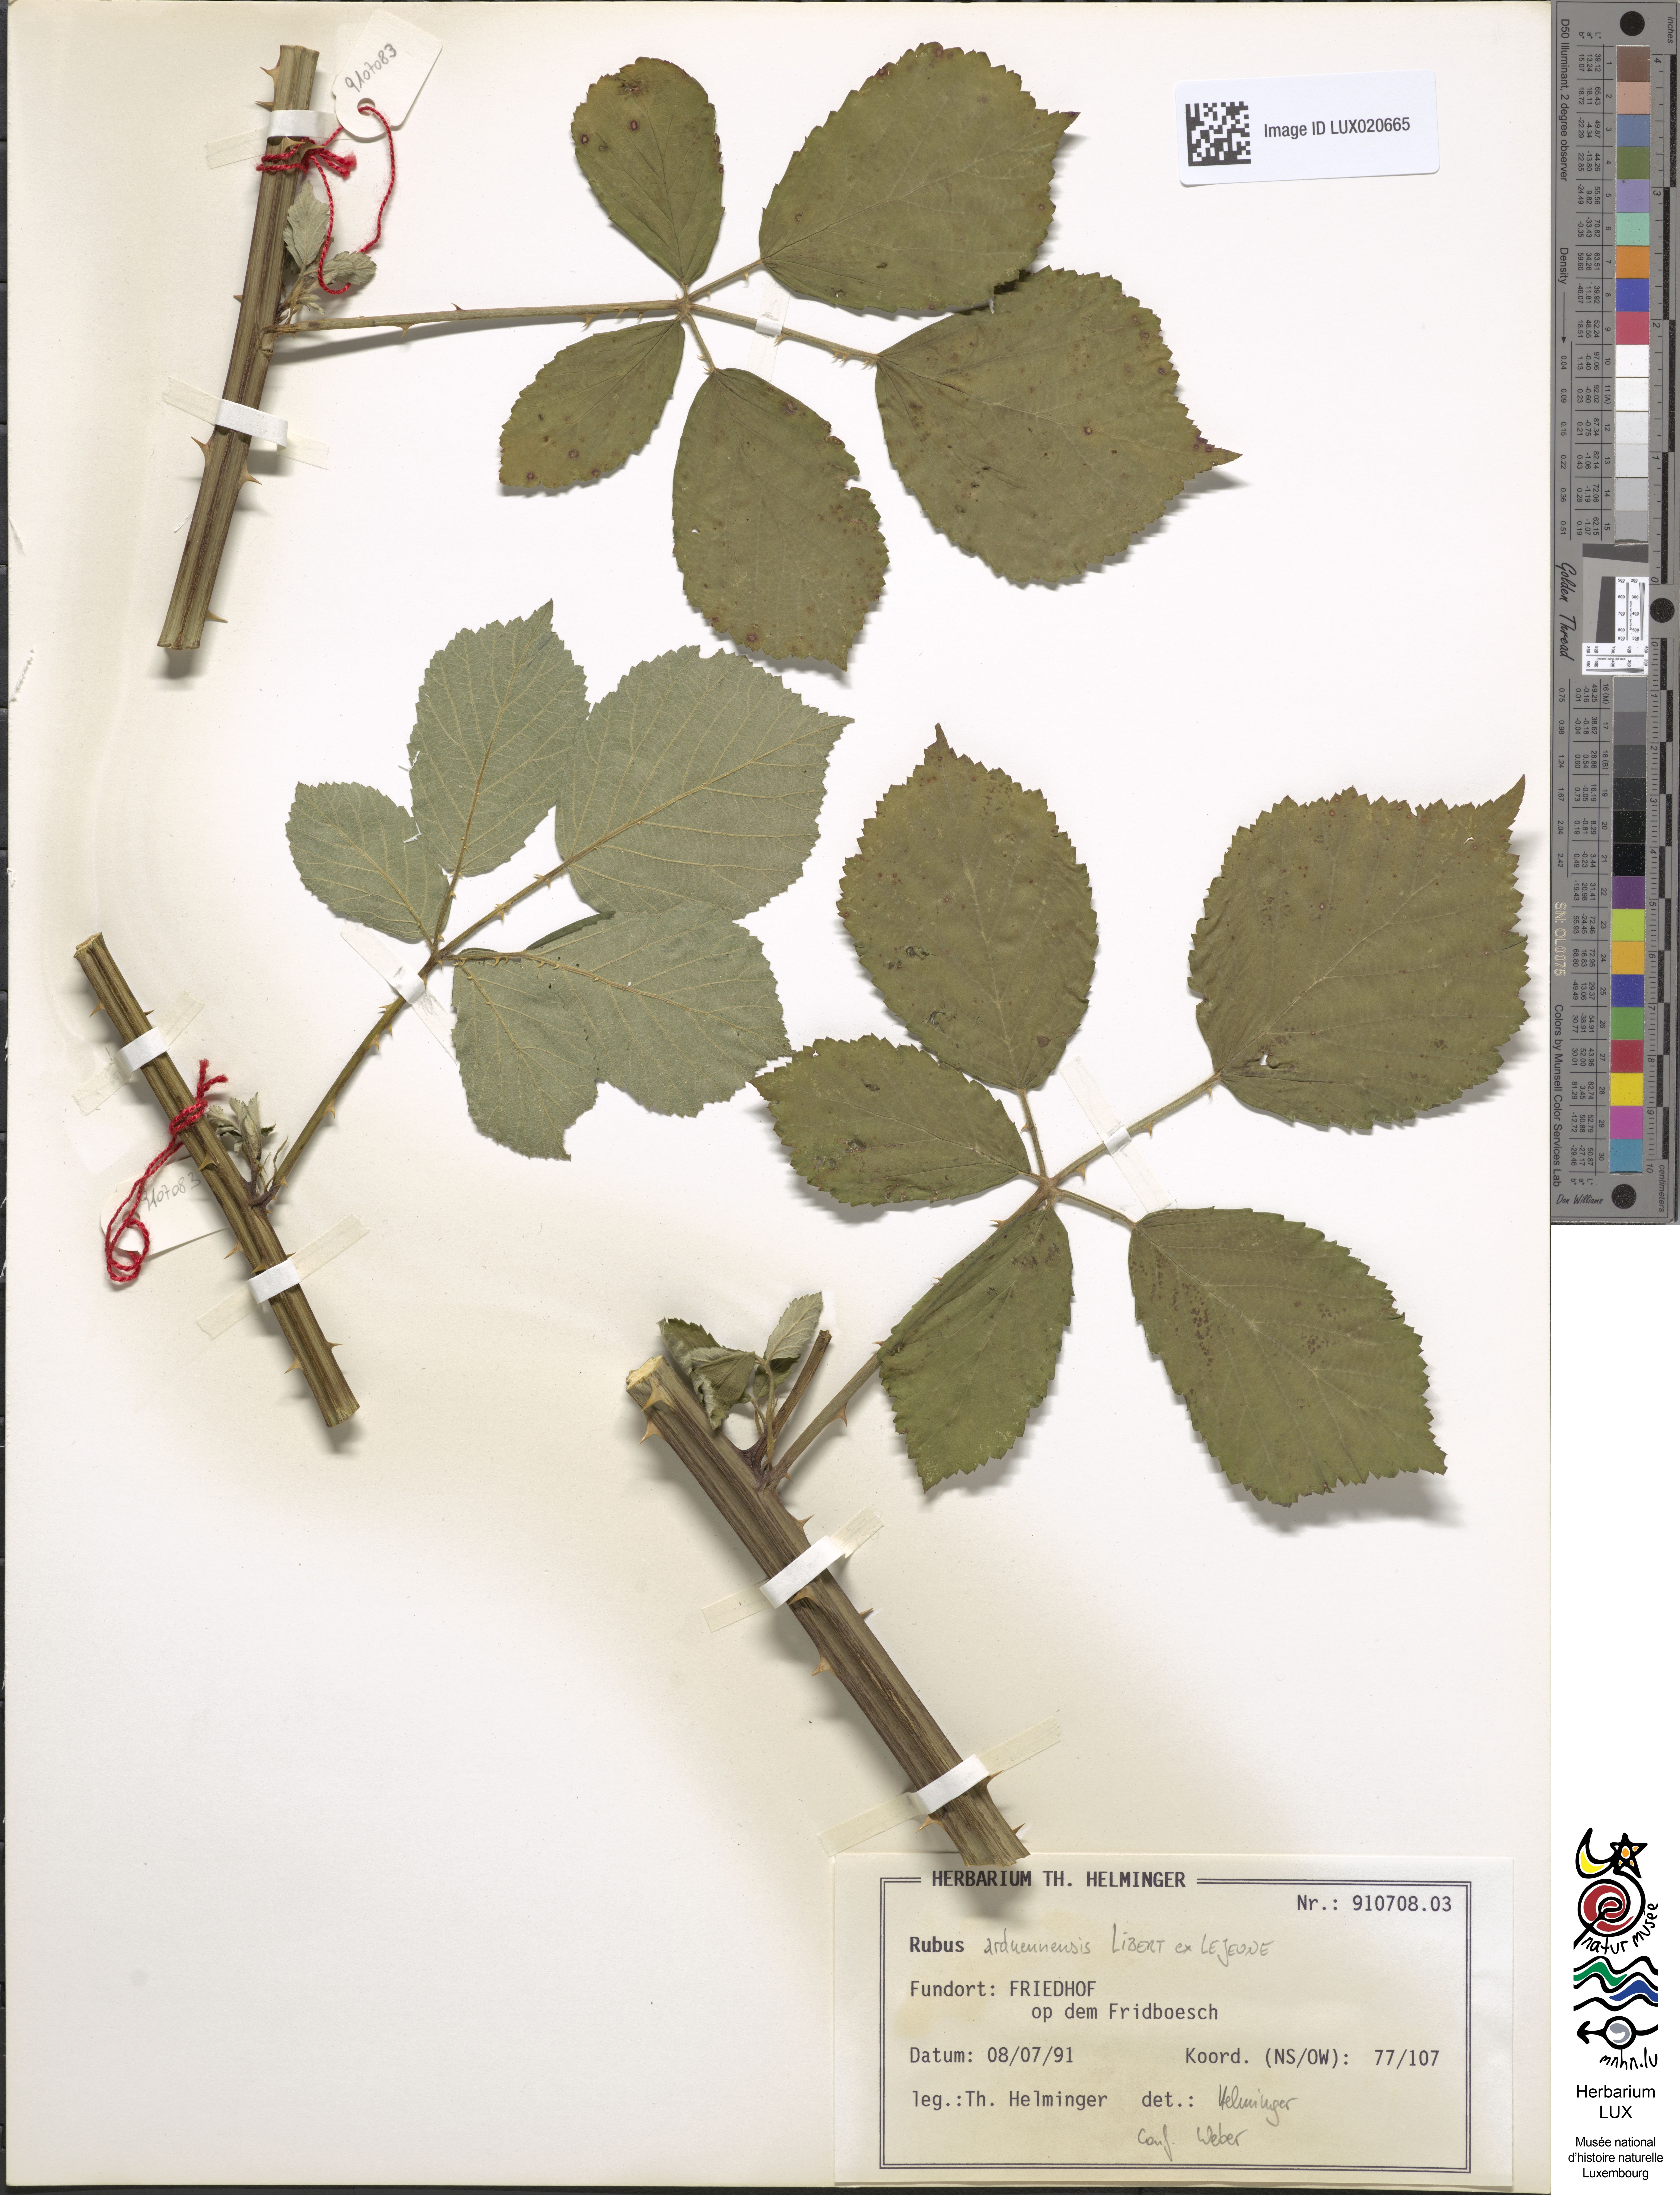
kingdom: Plantae
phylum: Tracheophyta
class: Magnoliopsida
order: Rosales
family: Rosaceae
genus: Rubus
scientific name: Rubus
